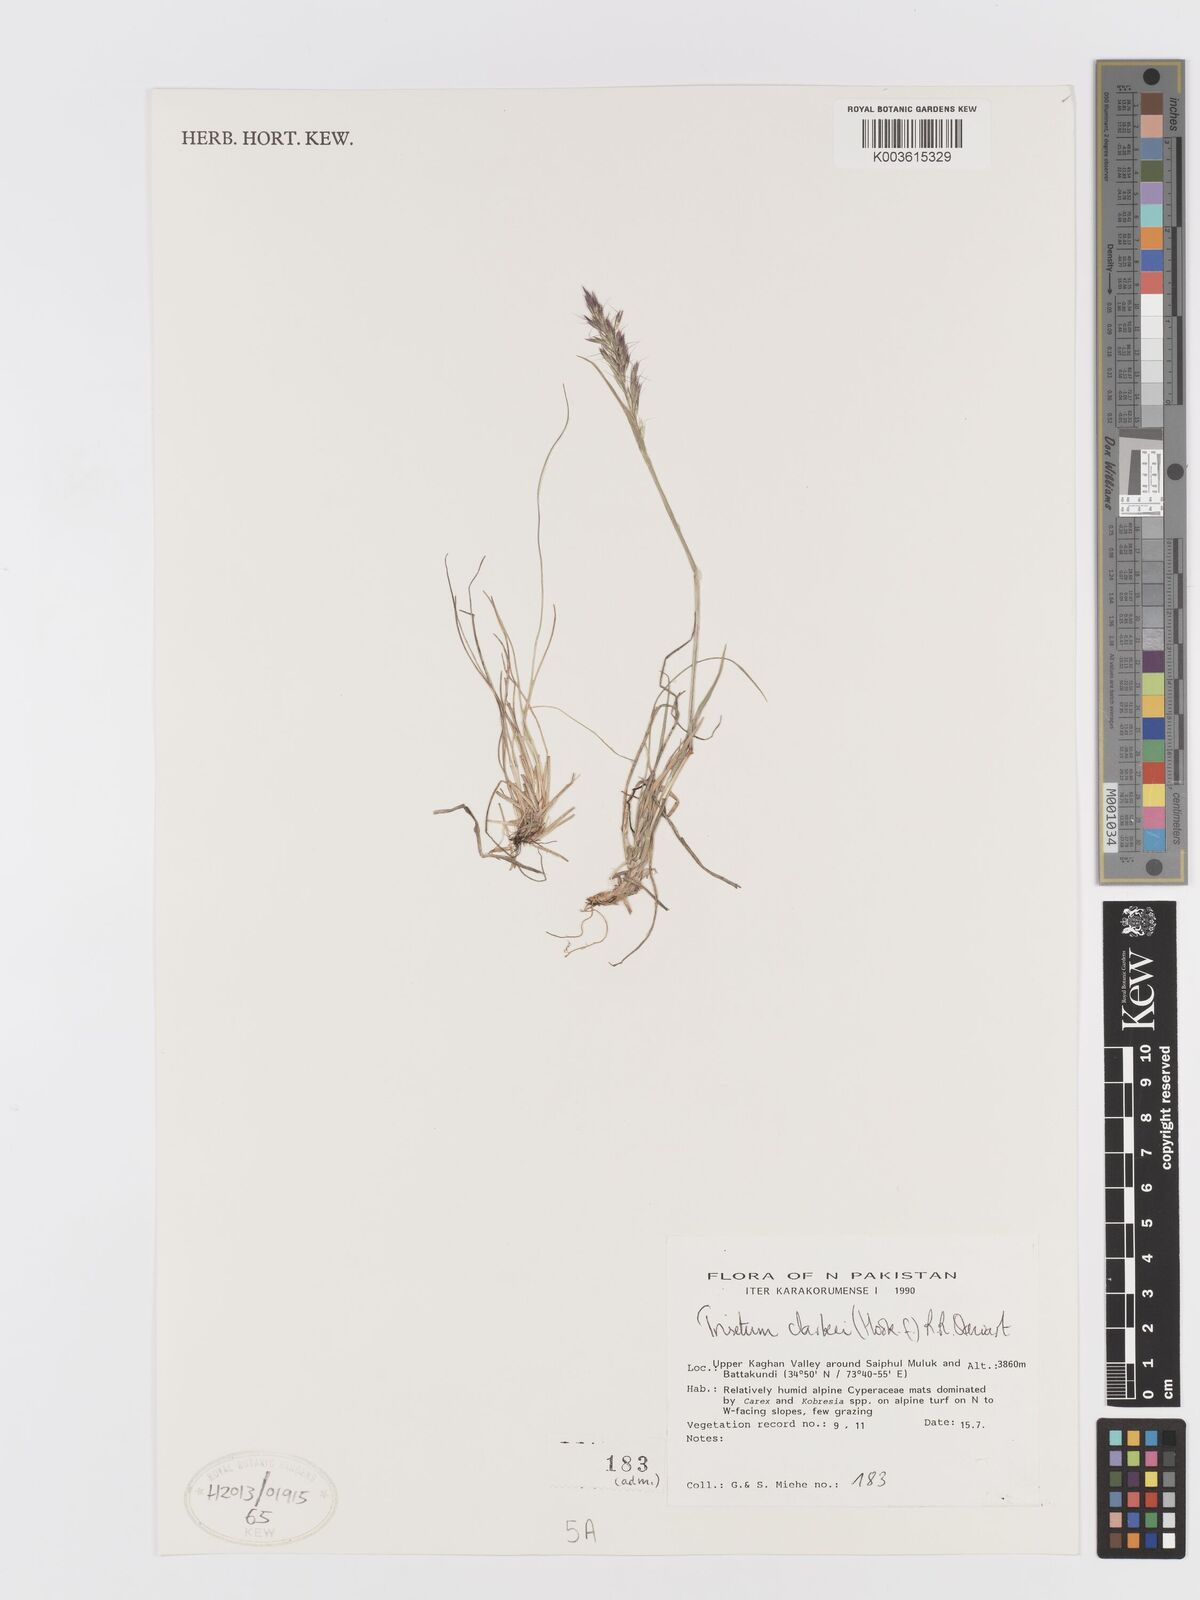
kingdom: Plantae
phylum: Tracheophyta
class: Liliopsida
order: Poales
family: Poaceae
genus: Trisetum
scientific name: Trisetum clarkei
